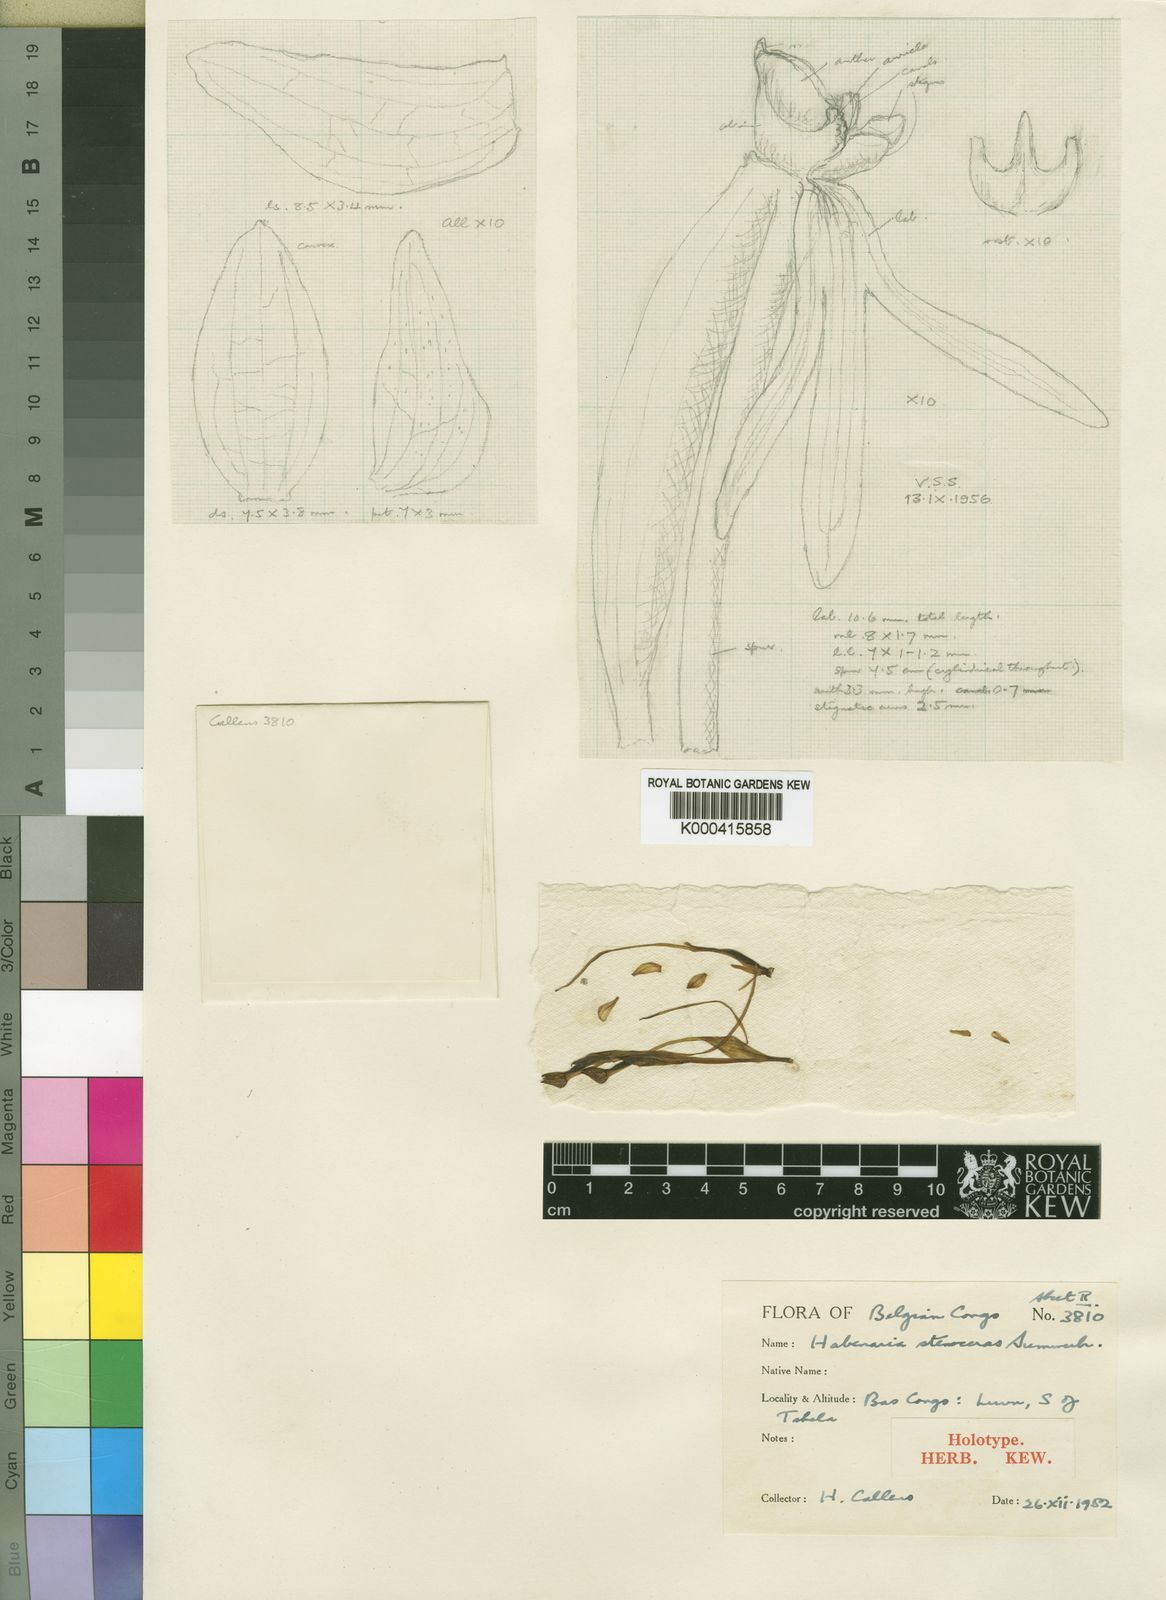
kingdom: Plantae
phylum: Tracheophyta
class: Liliopsida
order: Asparagales
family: Orchidaceae
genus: Habenaria
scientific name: Habenaria stenoceras
